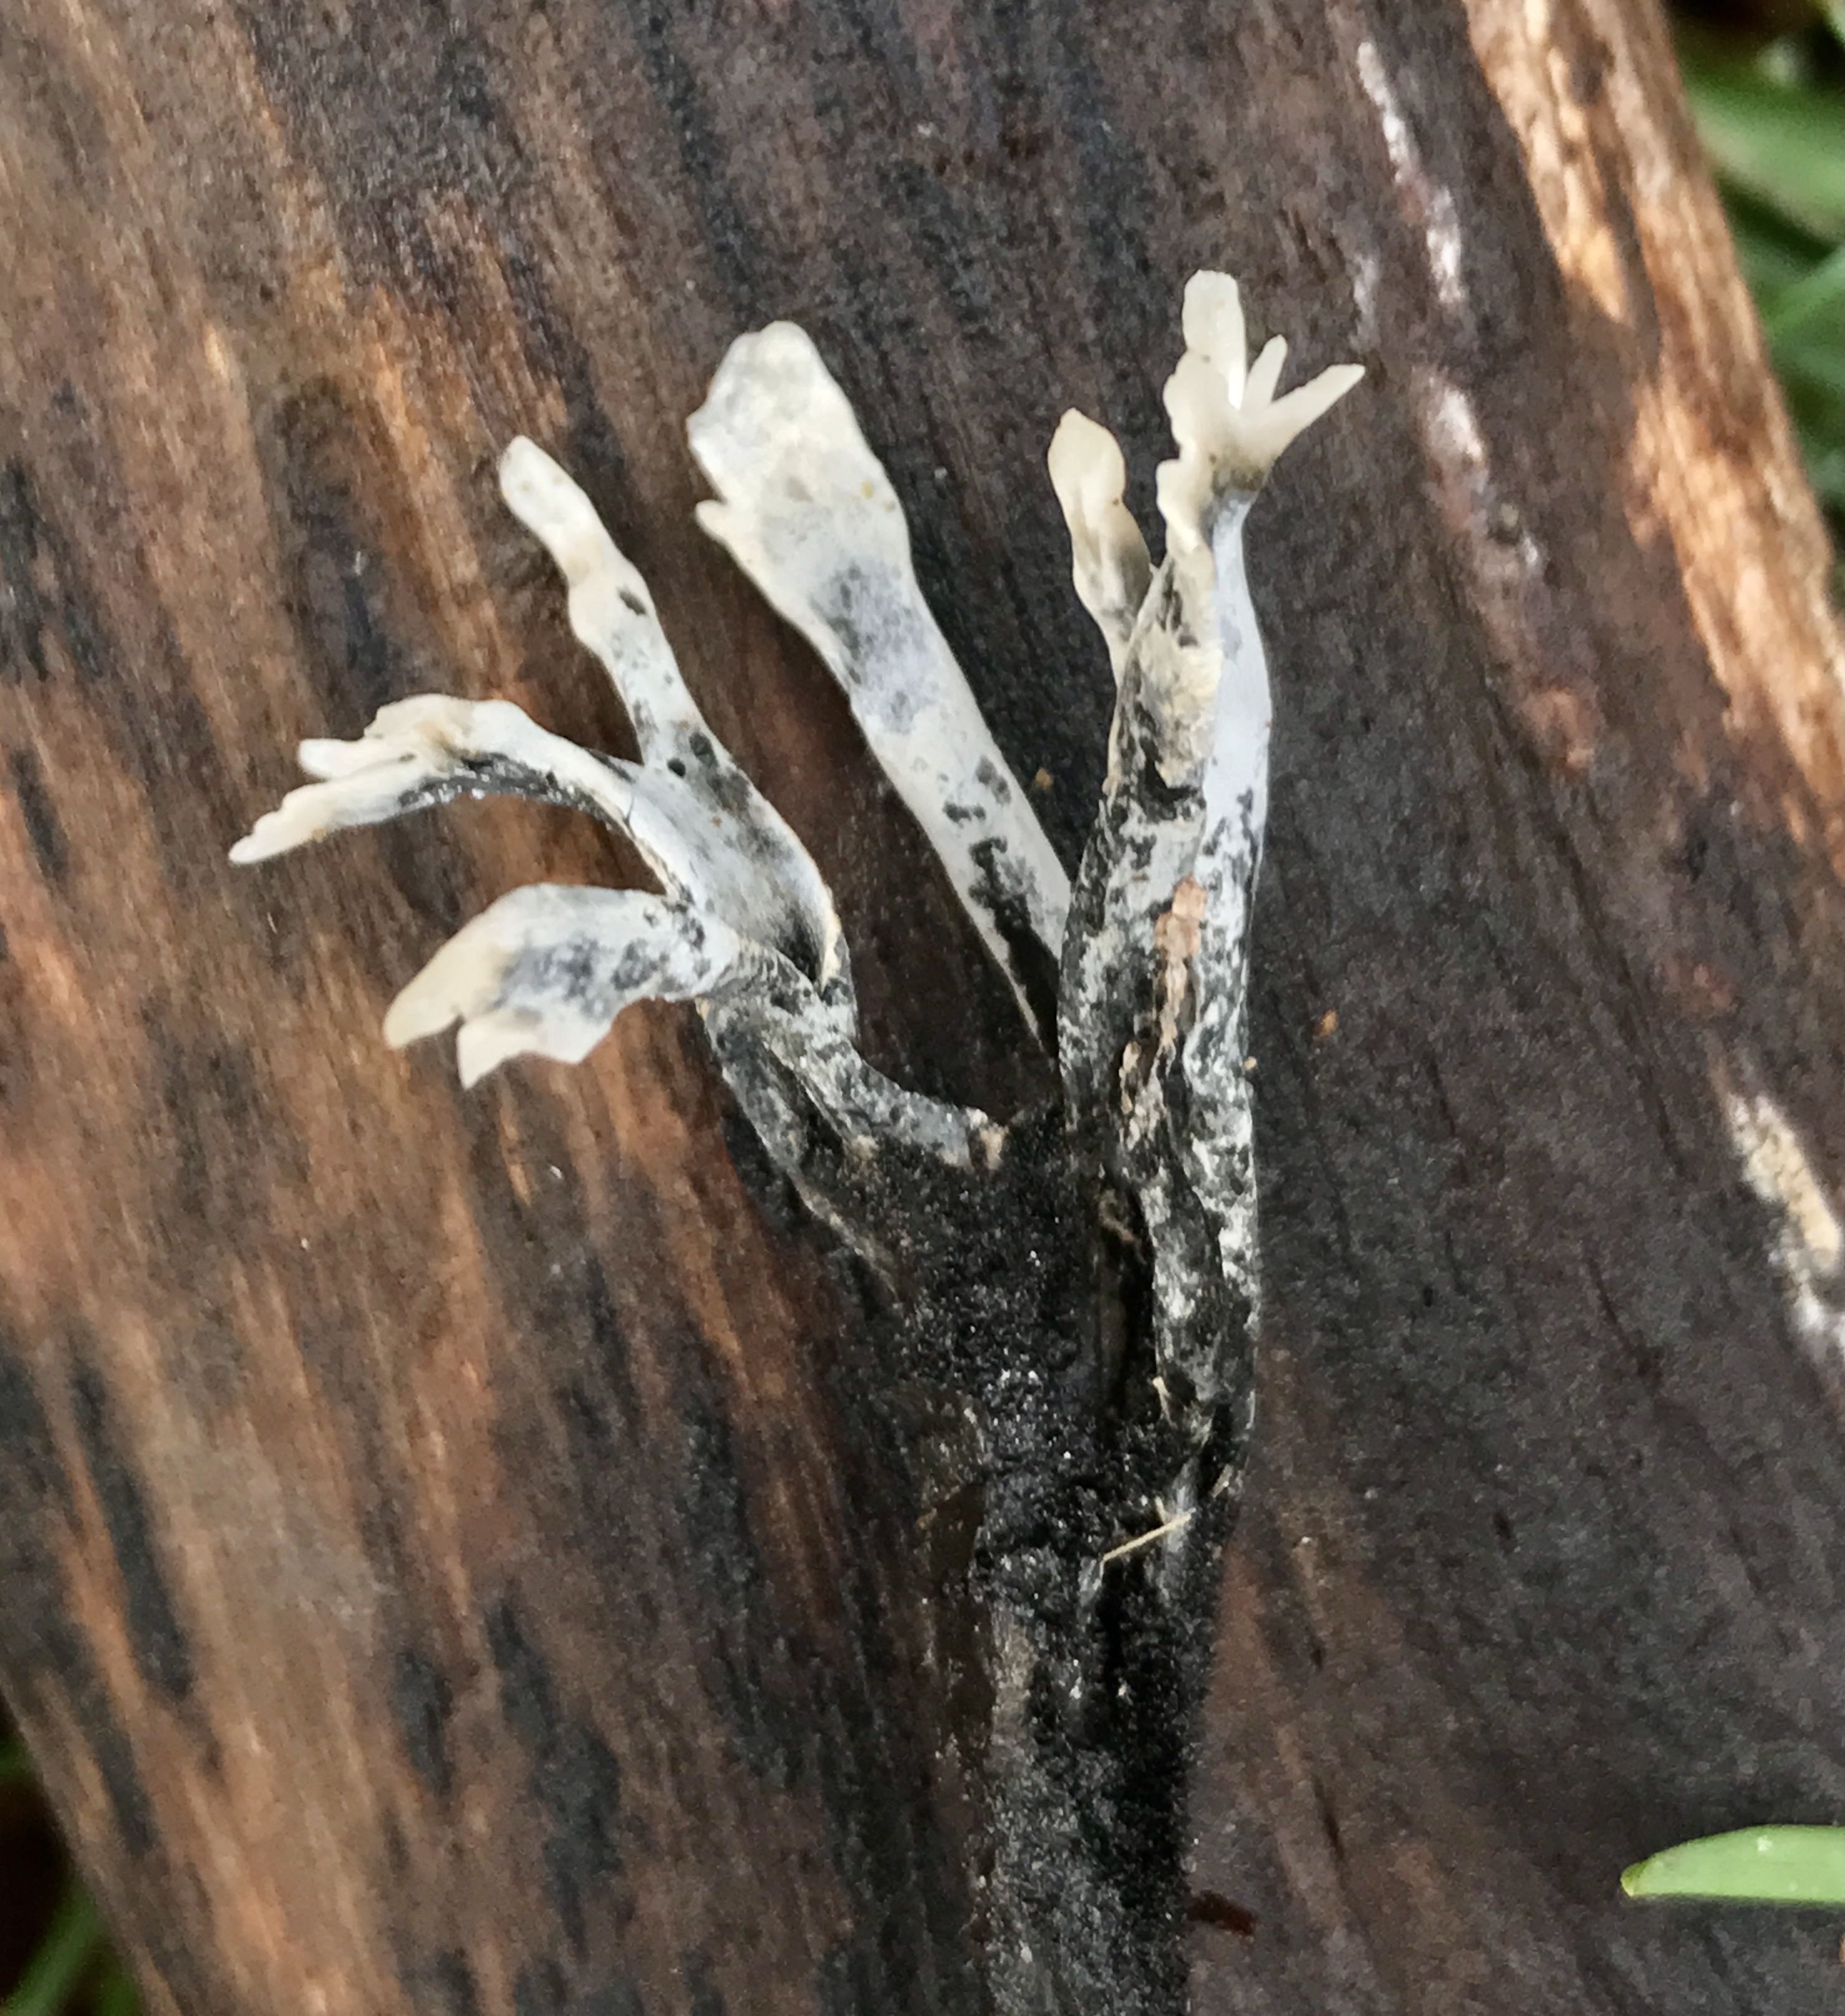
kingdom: Fungi
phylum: Ascomycota
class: Sordariomycetes
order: Xylariales
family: Xylariaceae
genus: Xylaria
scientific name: Xylaria hypoxylon
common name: grenet stødsvamp
